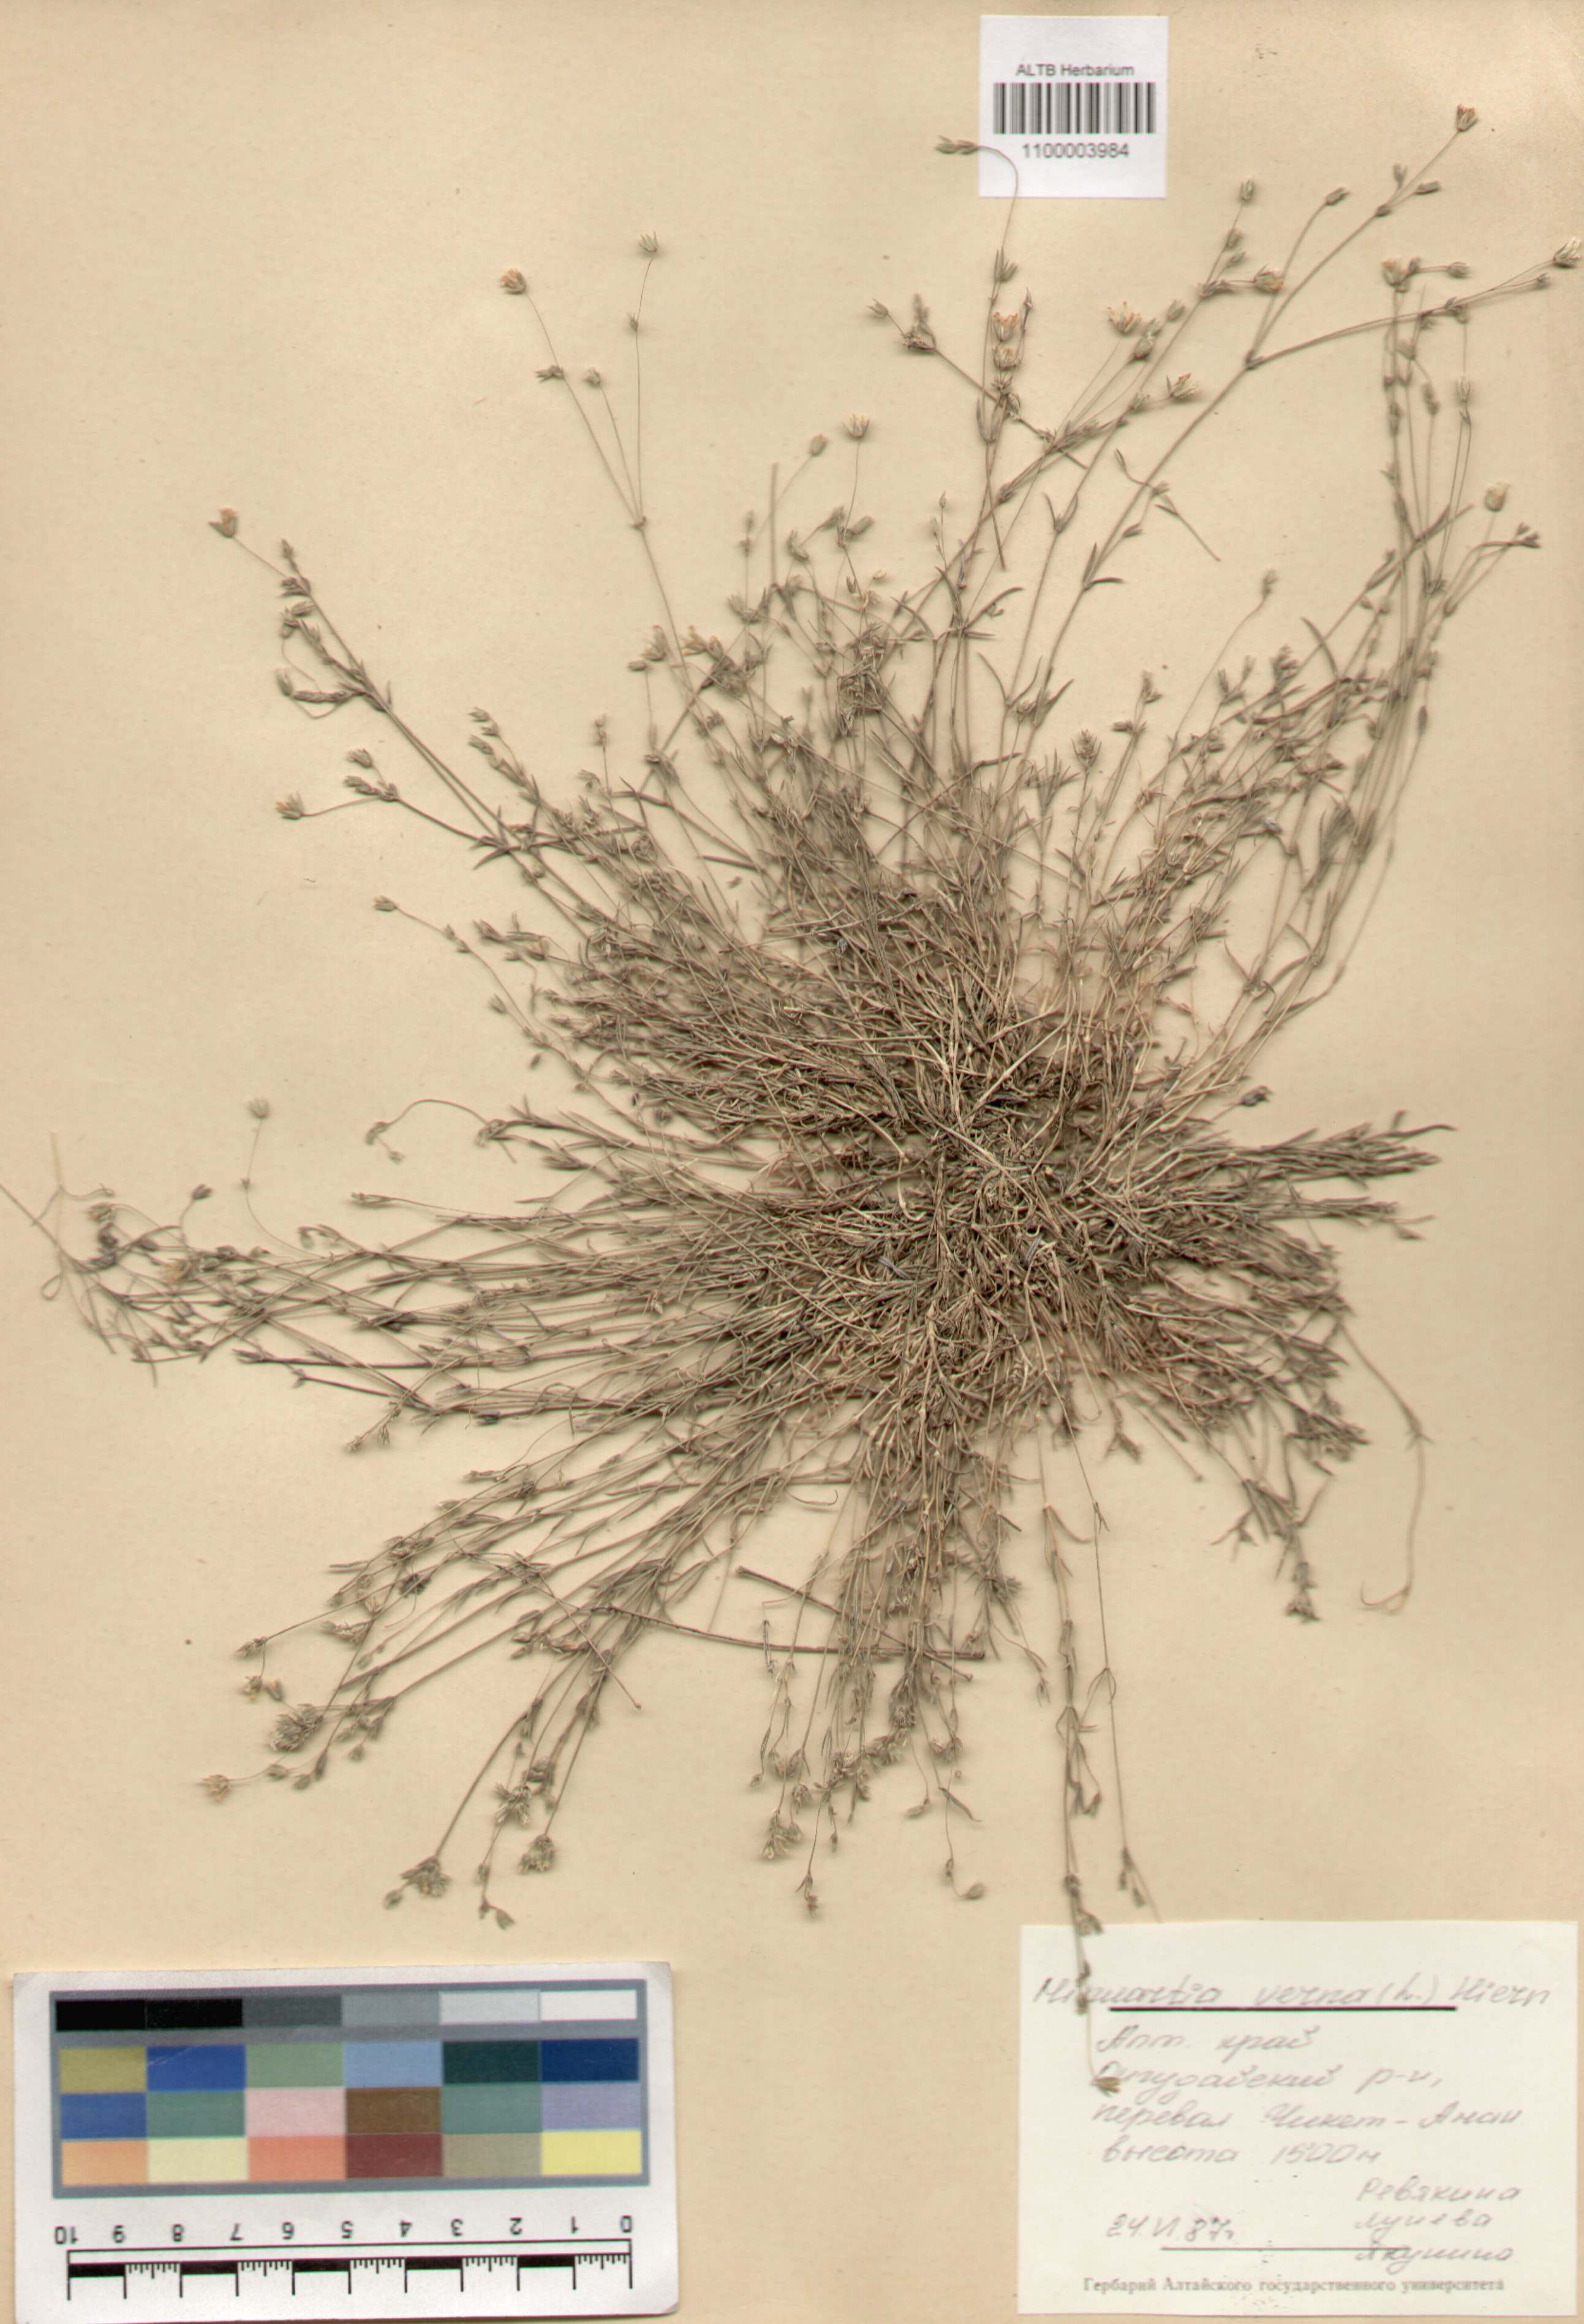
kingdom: Plantae
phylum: Tracheophyta
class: Magnoliopsida
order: Caryophyllales
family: Caryophyllaceae
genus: Sabulina
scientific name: Sabulina verna
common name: Spring sandwort
